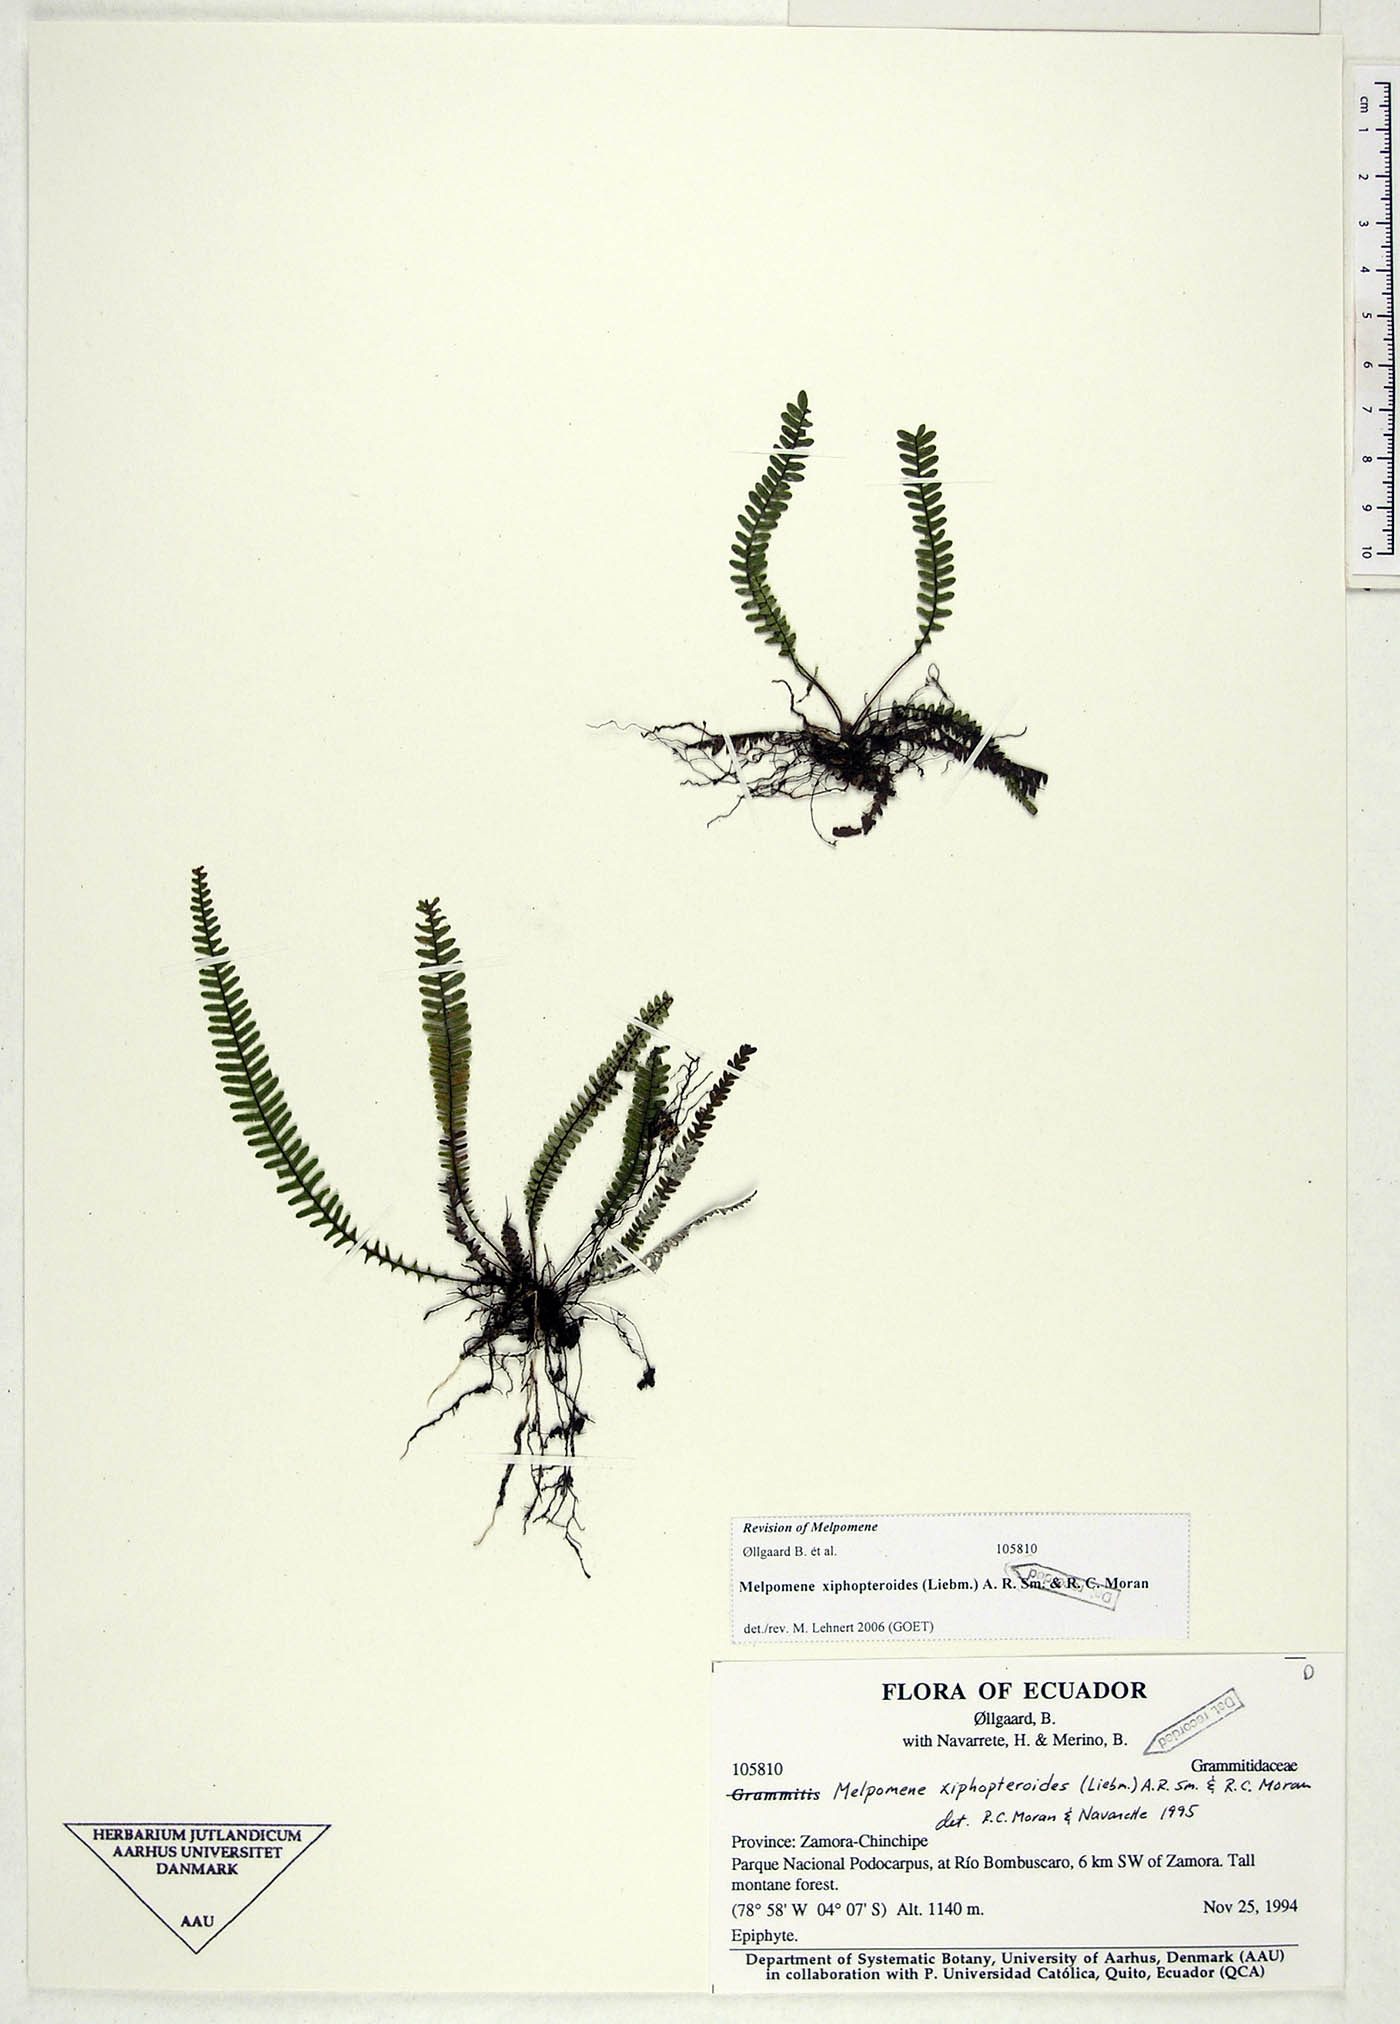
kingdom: Plantae
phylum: Tracheophyta
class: Polypodiopsida
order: Polypodiales
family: Polypodiaceae
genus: Melpomene
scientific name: Melpomene xiphopteroides
